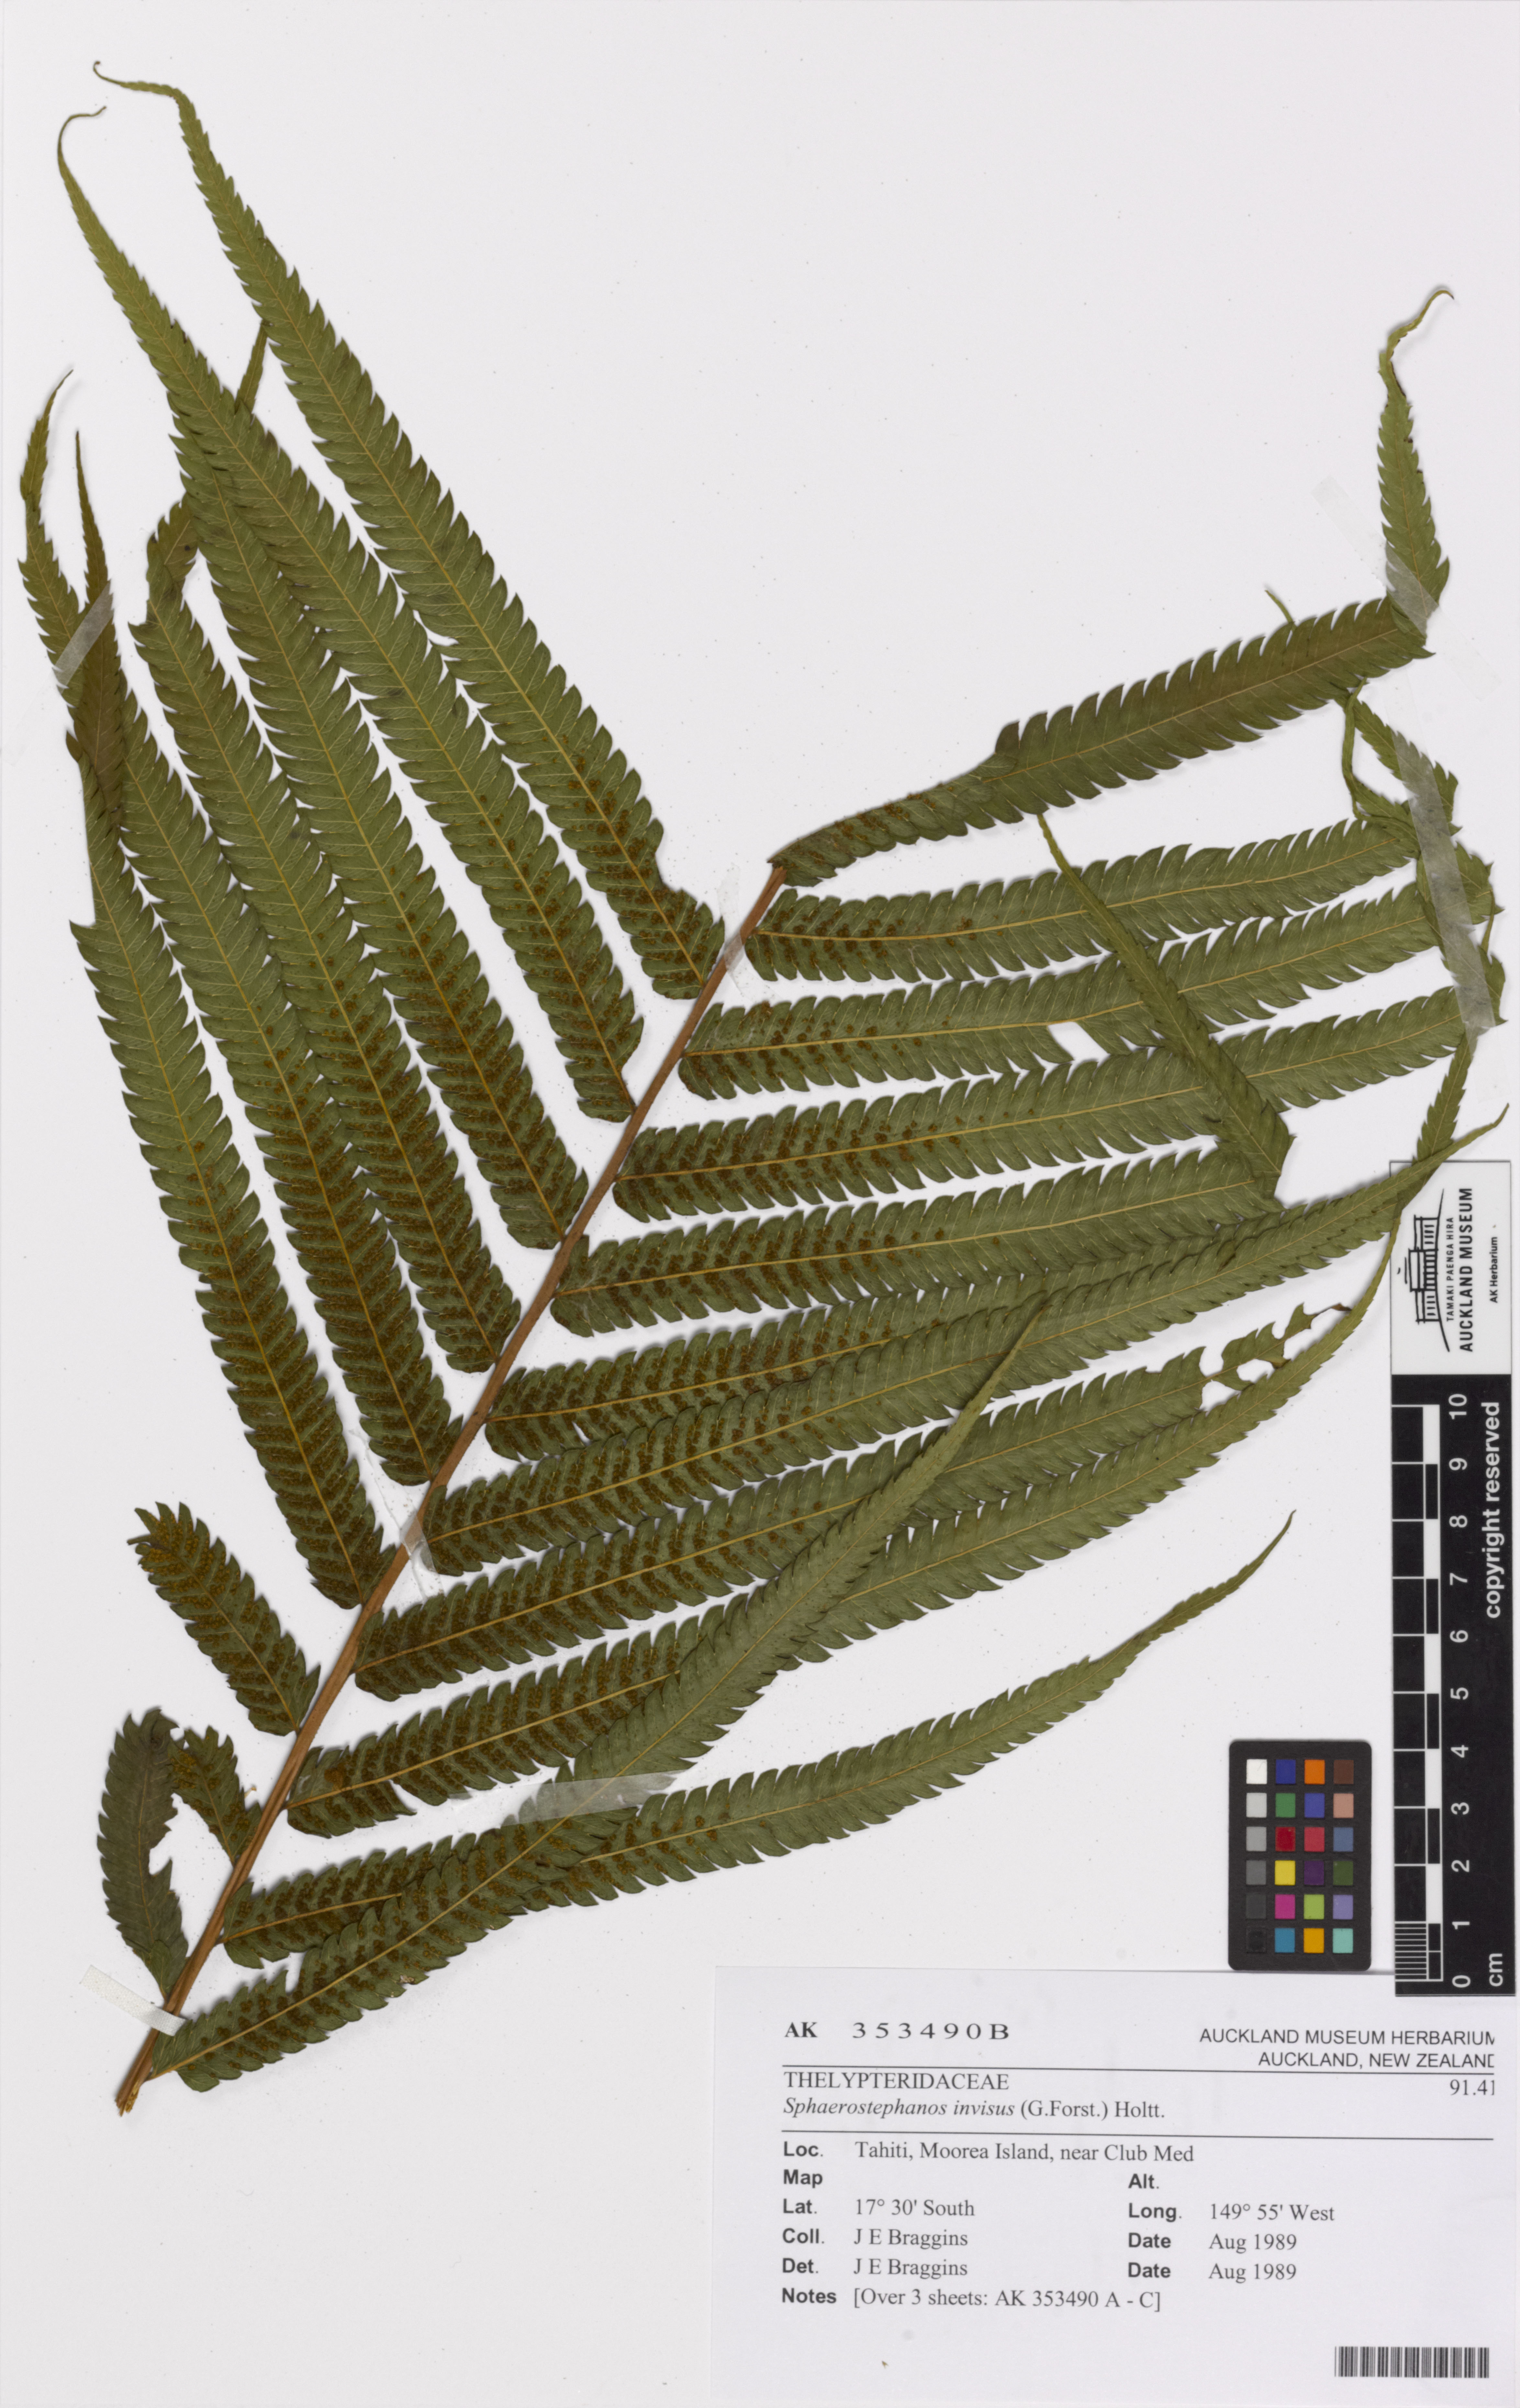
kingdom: Plantae
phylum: Tracheophyta
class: Polypodiopsida
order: Polypodiales
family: Thelypteridaceae
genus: Strophocaulon
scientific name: Strophocaulon invisum
